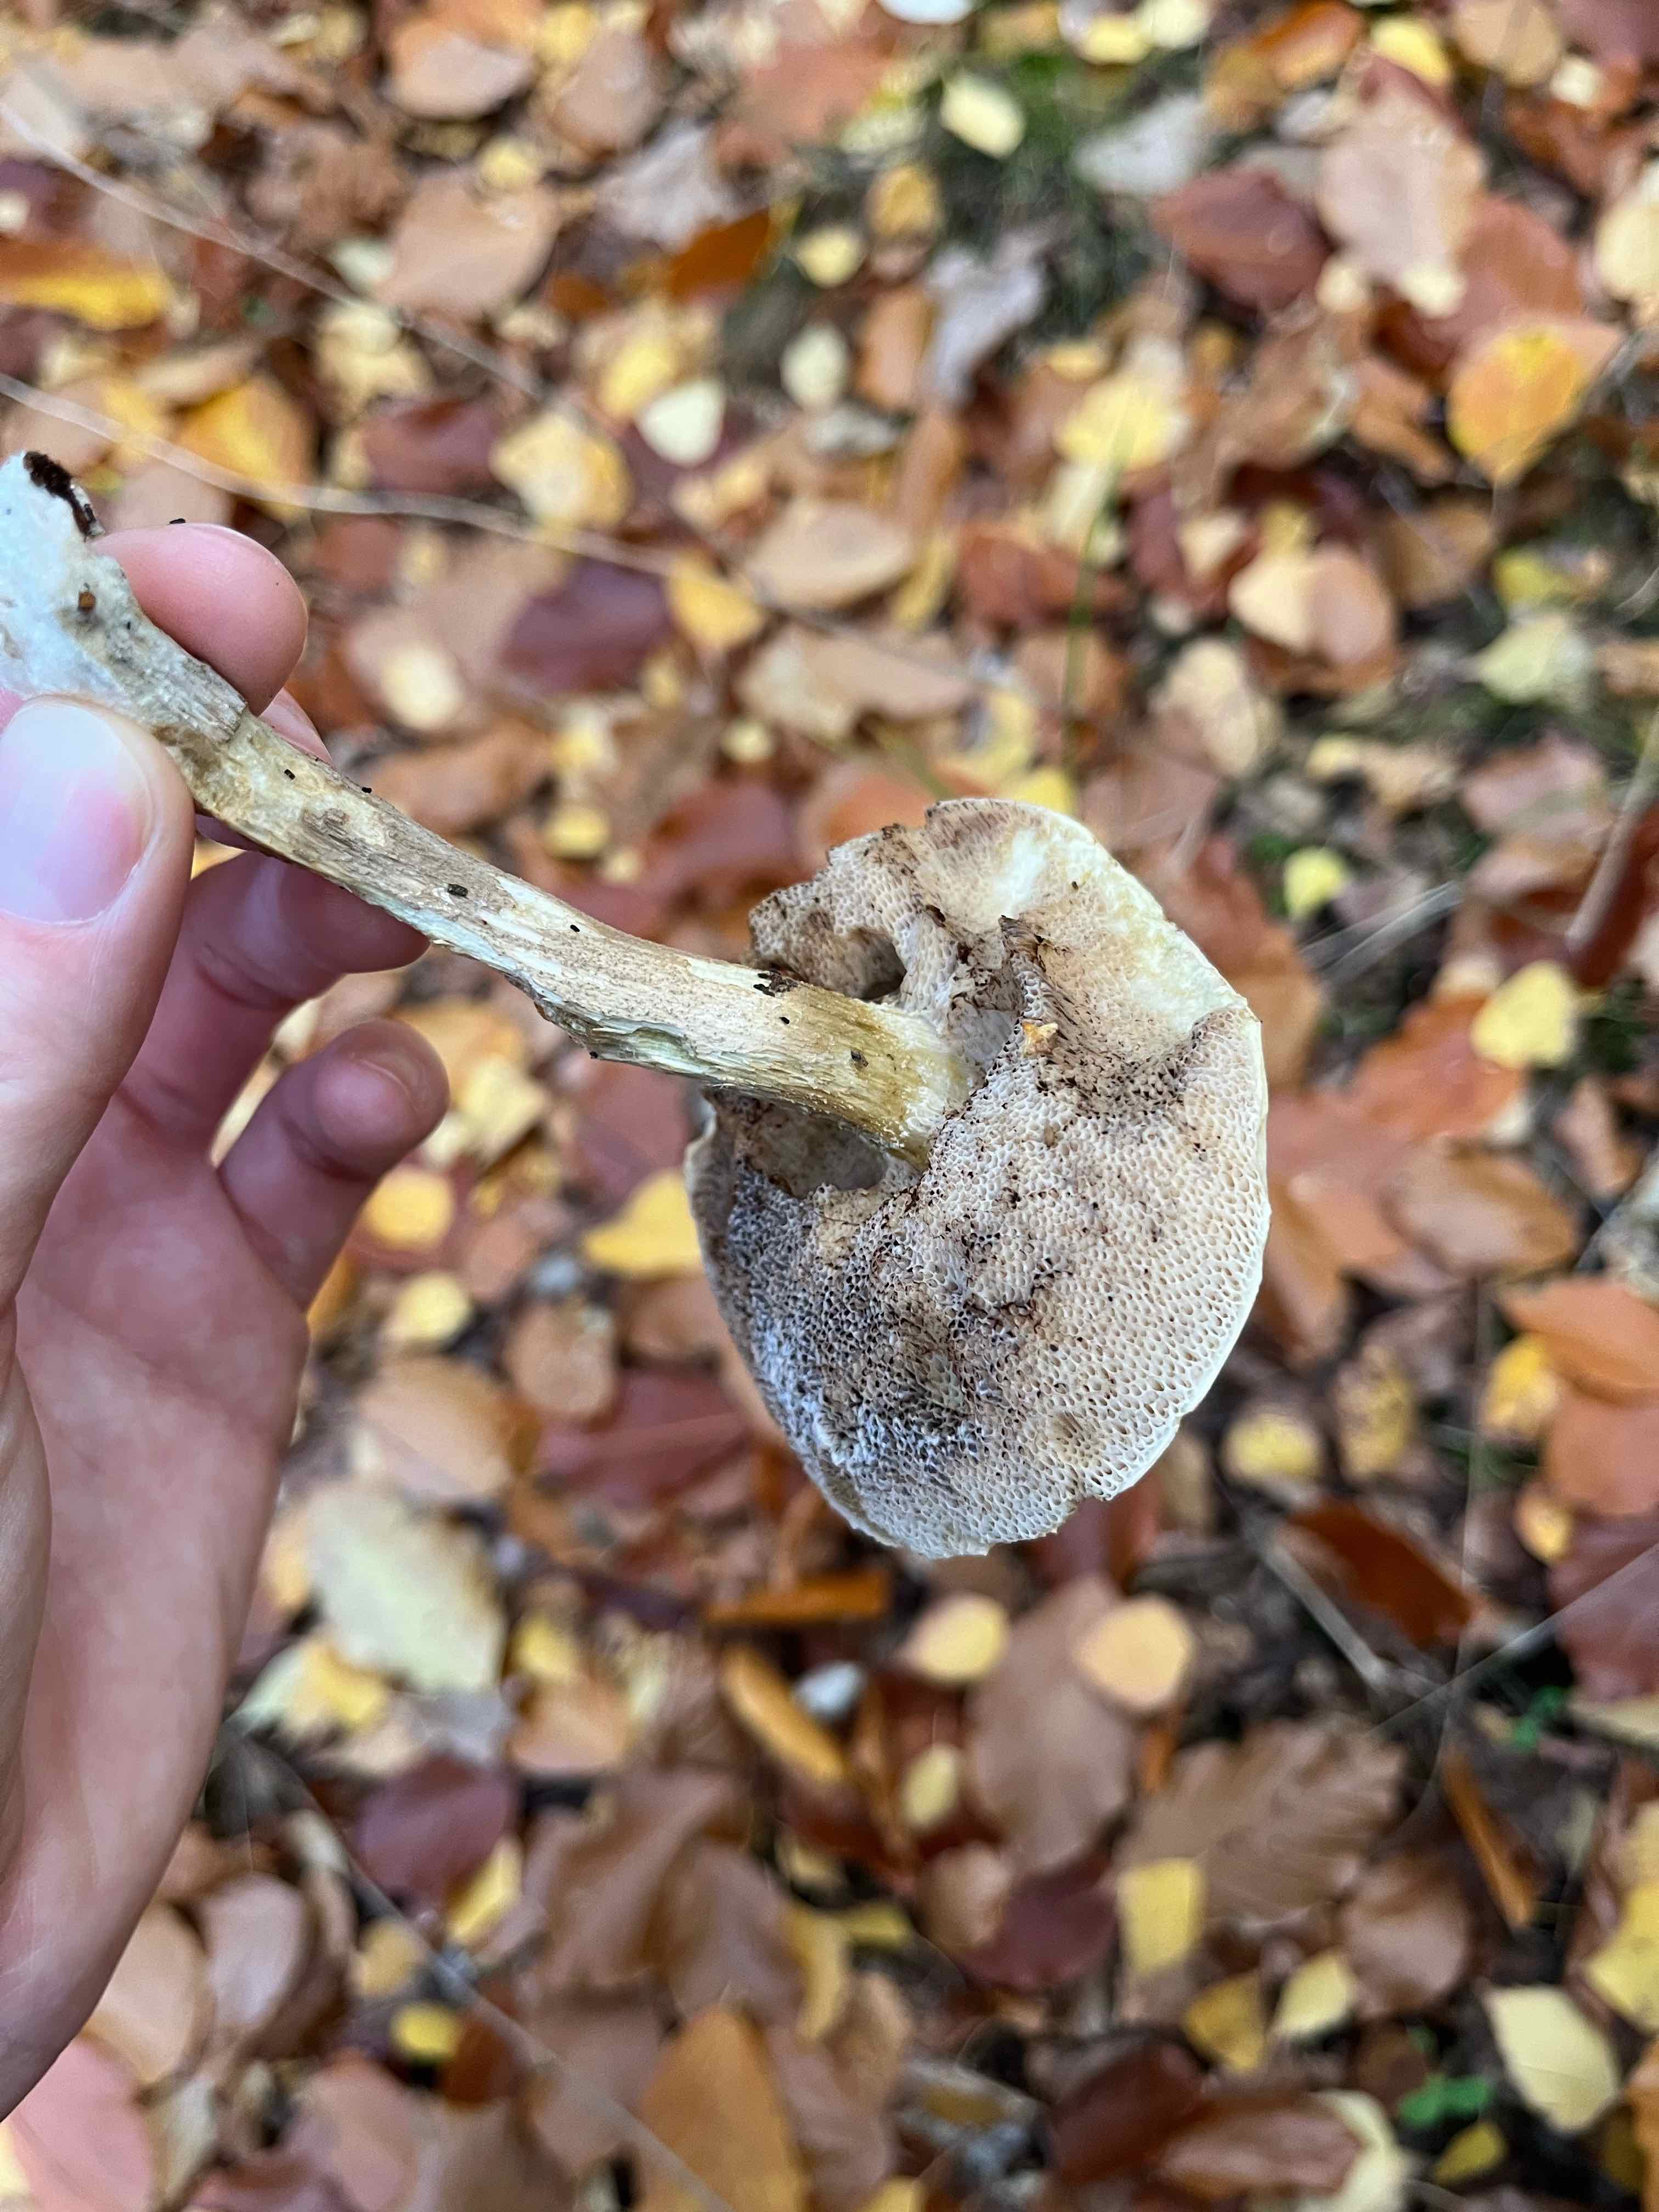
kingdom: Fungi
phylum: Basidiomycota
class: Agaricomycetes
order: Boletales
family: Boletaceae
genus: Leccinum
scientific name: Leccinum
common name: skælrørhat
